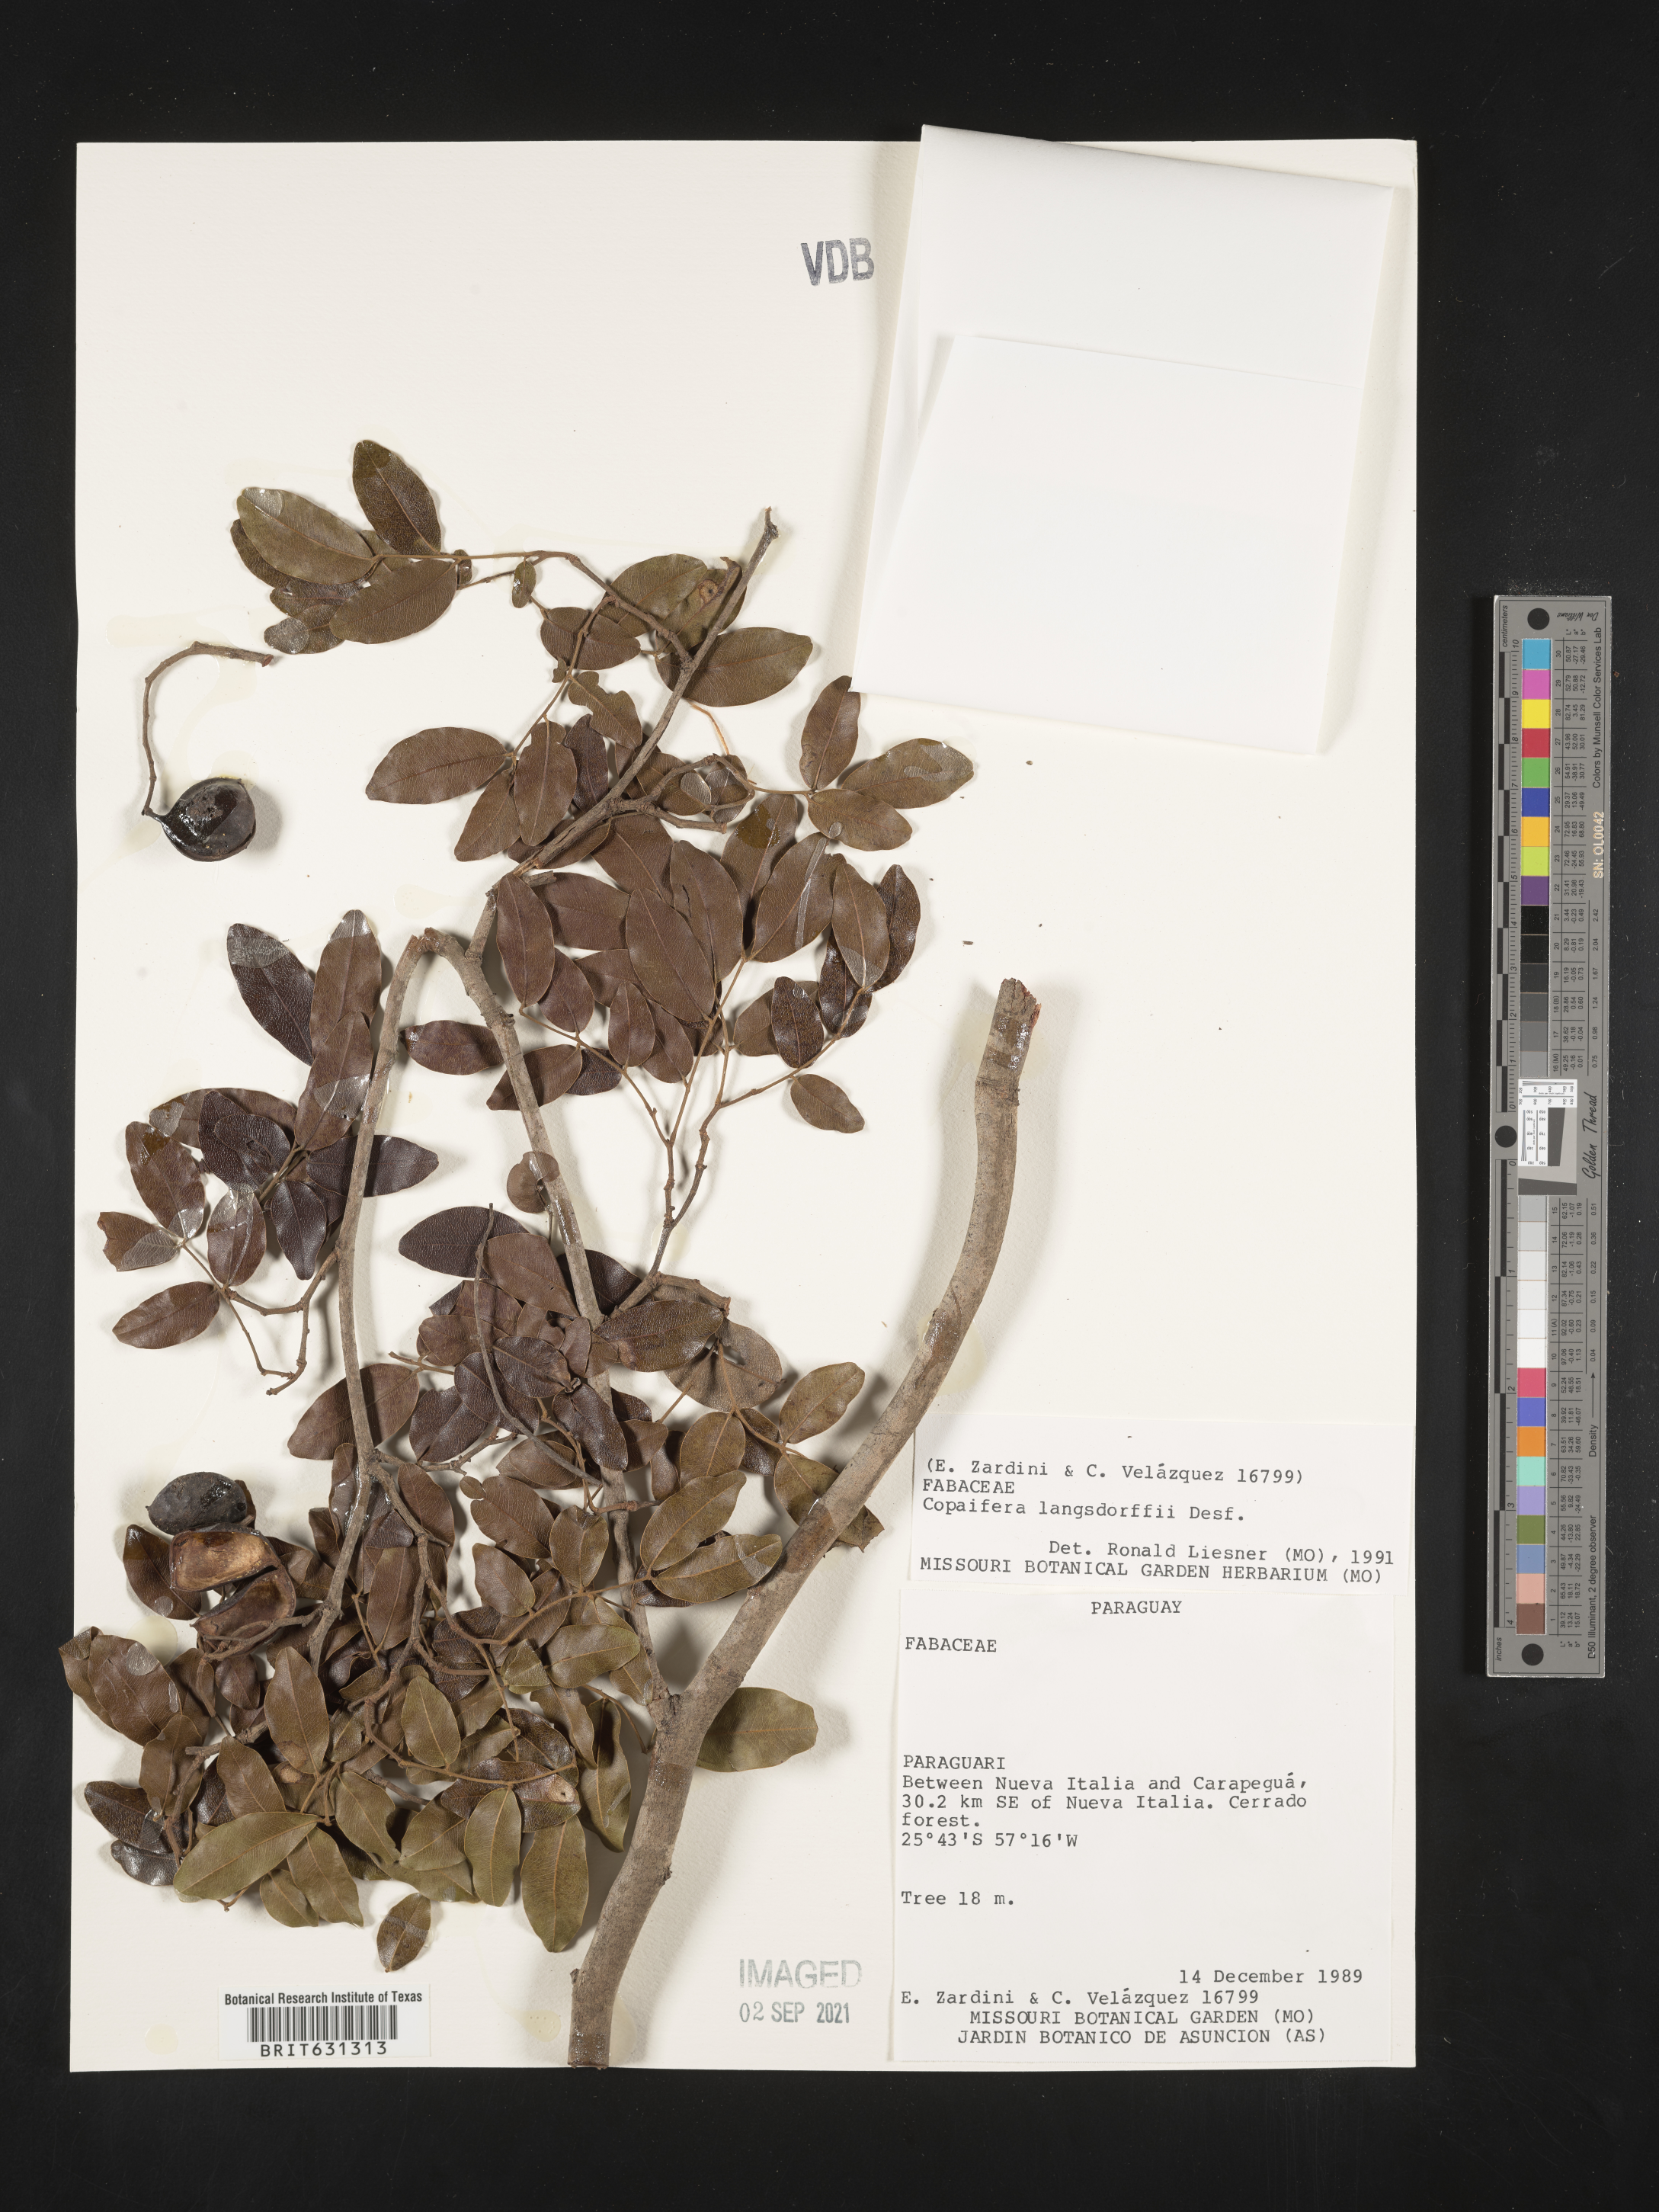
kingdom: Plantae
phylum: Tracheophyta
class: Magnoliopsida
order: Fabales
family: Fabaceae
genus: Copaifera
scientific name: Copaifera langsdorffii
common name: Brazilian diesel tree
